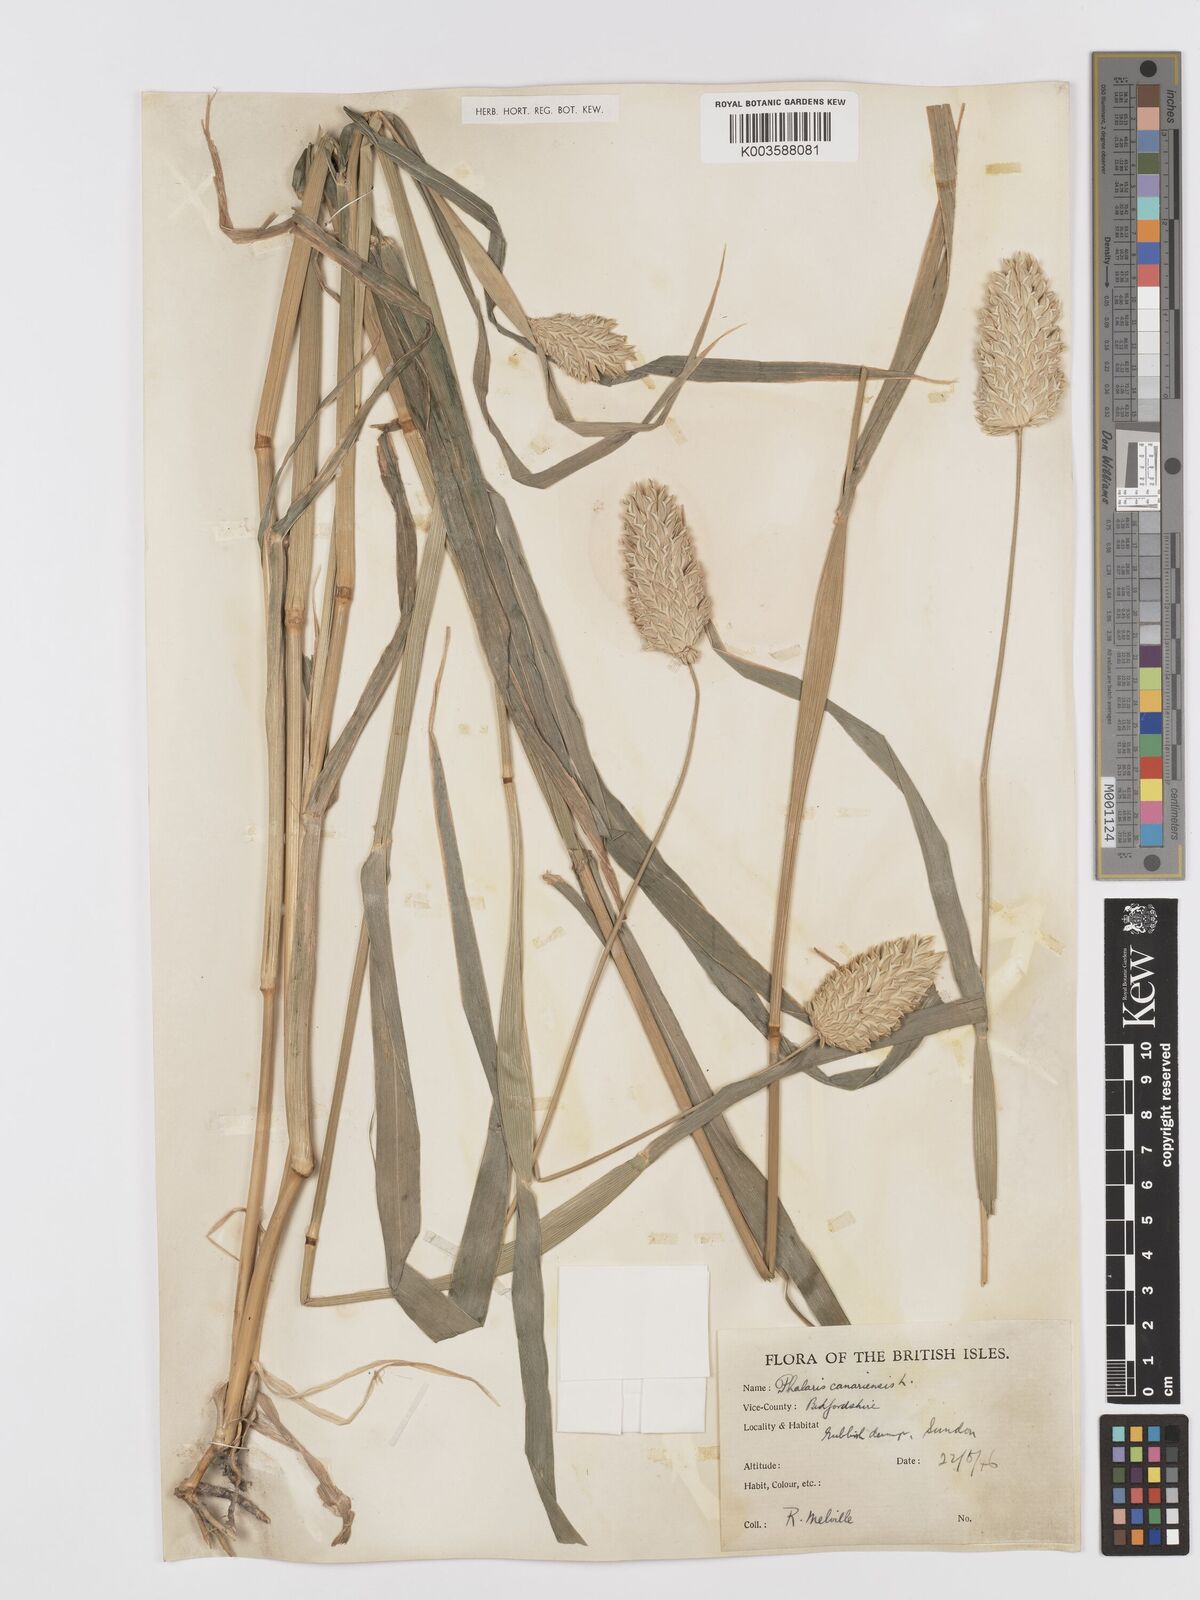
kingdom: Plantae
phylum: Tracheophyta
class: Liliopsida
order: Poales
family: Poaceae
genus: Phalaris
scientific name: Phalaris canariensis
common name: Annual canarygrass
